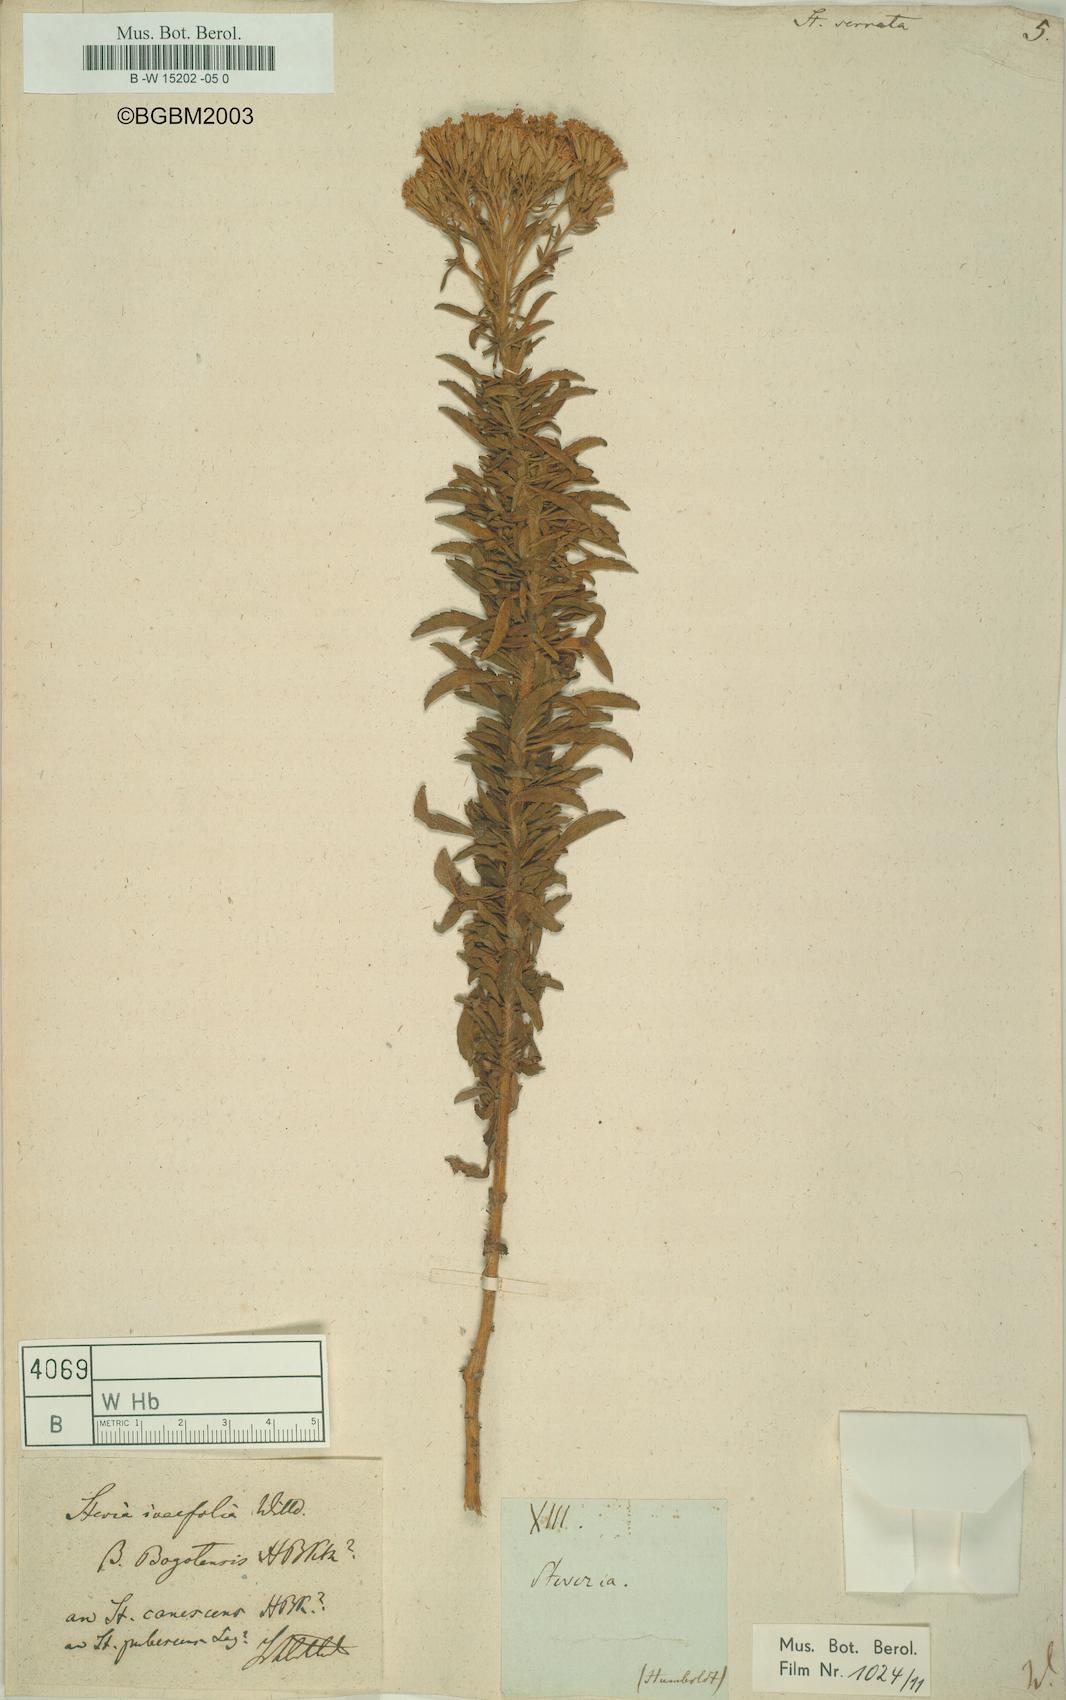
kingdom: Plantae
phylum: Tracheophyta
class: Magnoliopsida
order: Asterales
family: Asteraceae
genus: Stevia
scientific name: Stevia serrata
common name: Sawtooth candyleaf
